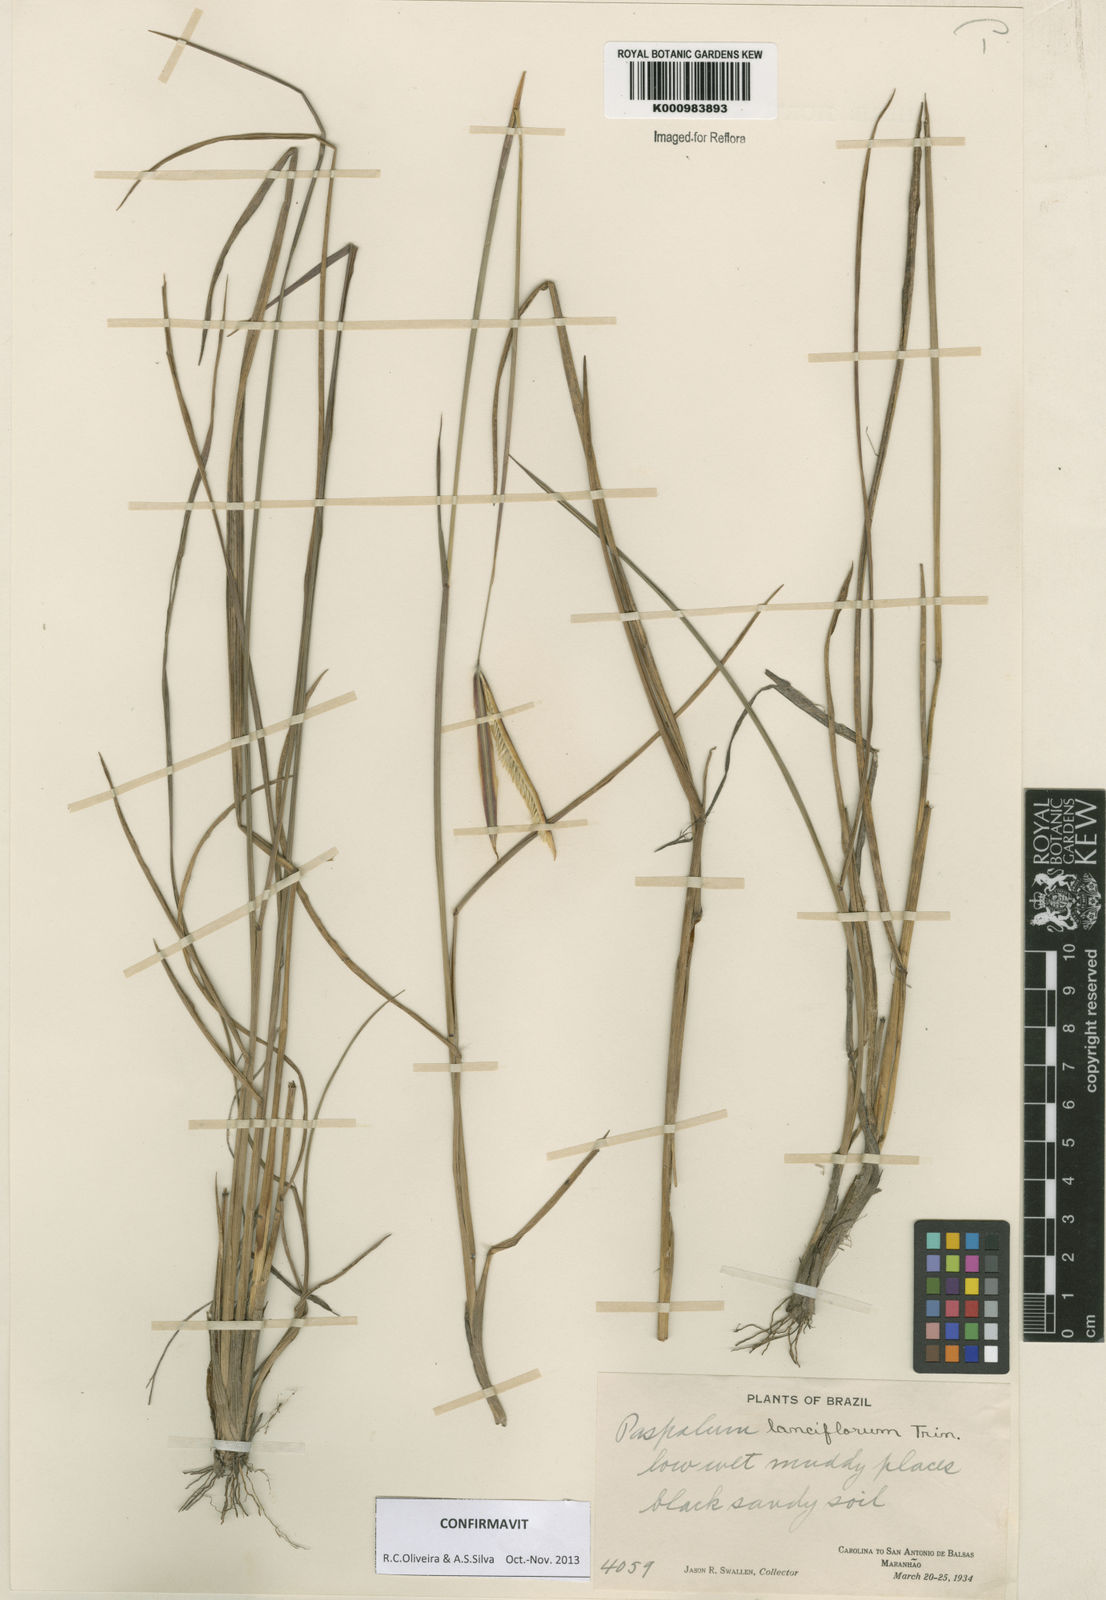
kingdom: Plantae
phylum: Tracheophyta
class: Liliopsida
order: Poales
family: Poaceae
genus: Paspalum
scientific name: Paspalum
